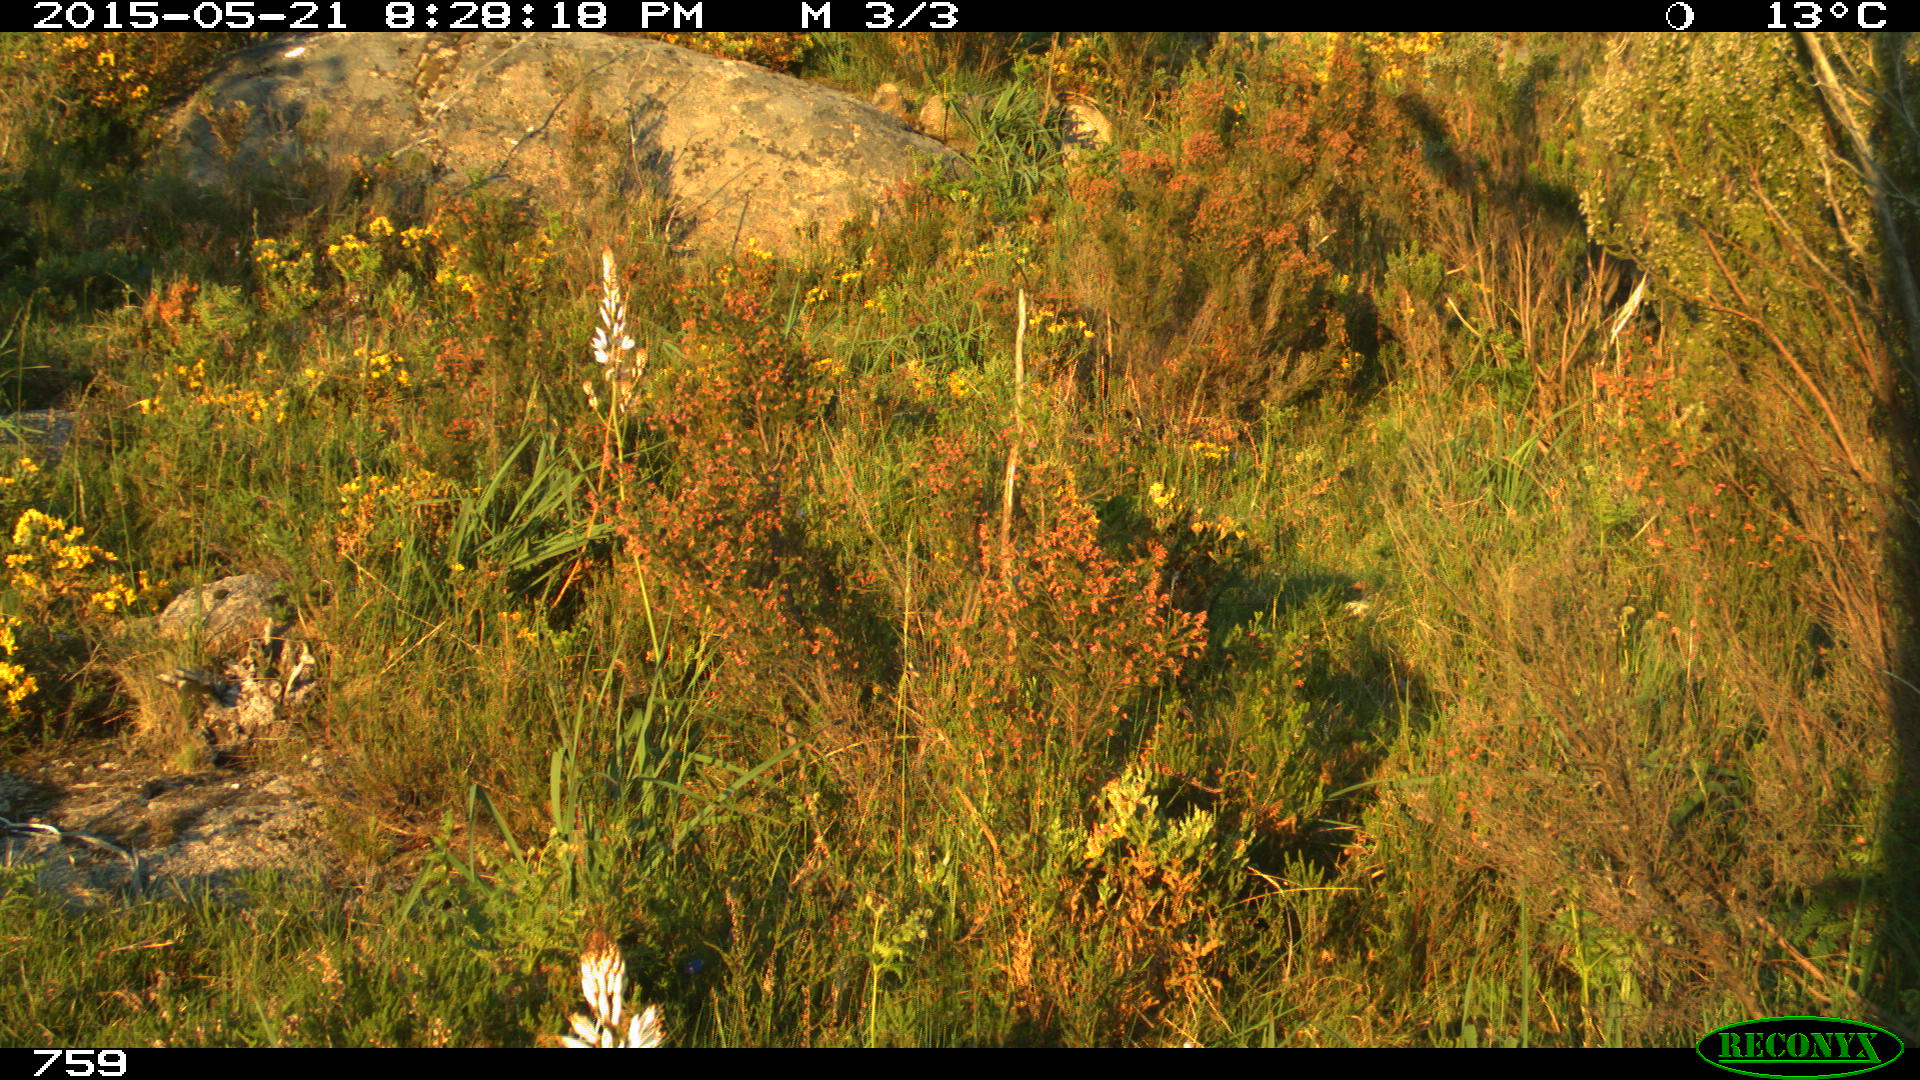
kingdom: Animalia
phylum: Chordata
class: Mammalia
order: Artiodactyla
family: Cervidae
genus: Capreolus
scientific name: Capreolus capreolus
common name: Western roe deer
